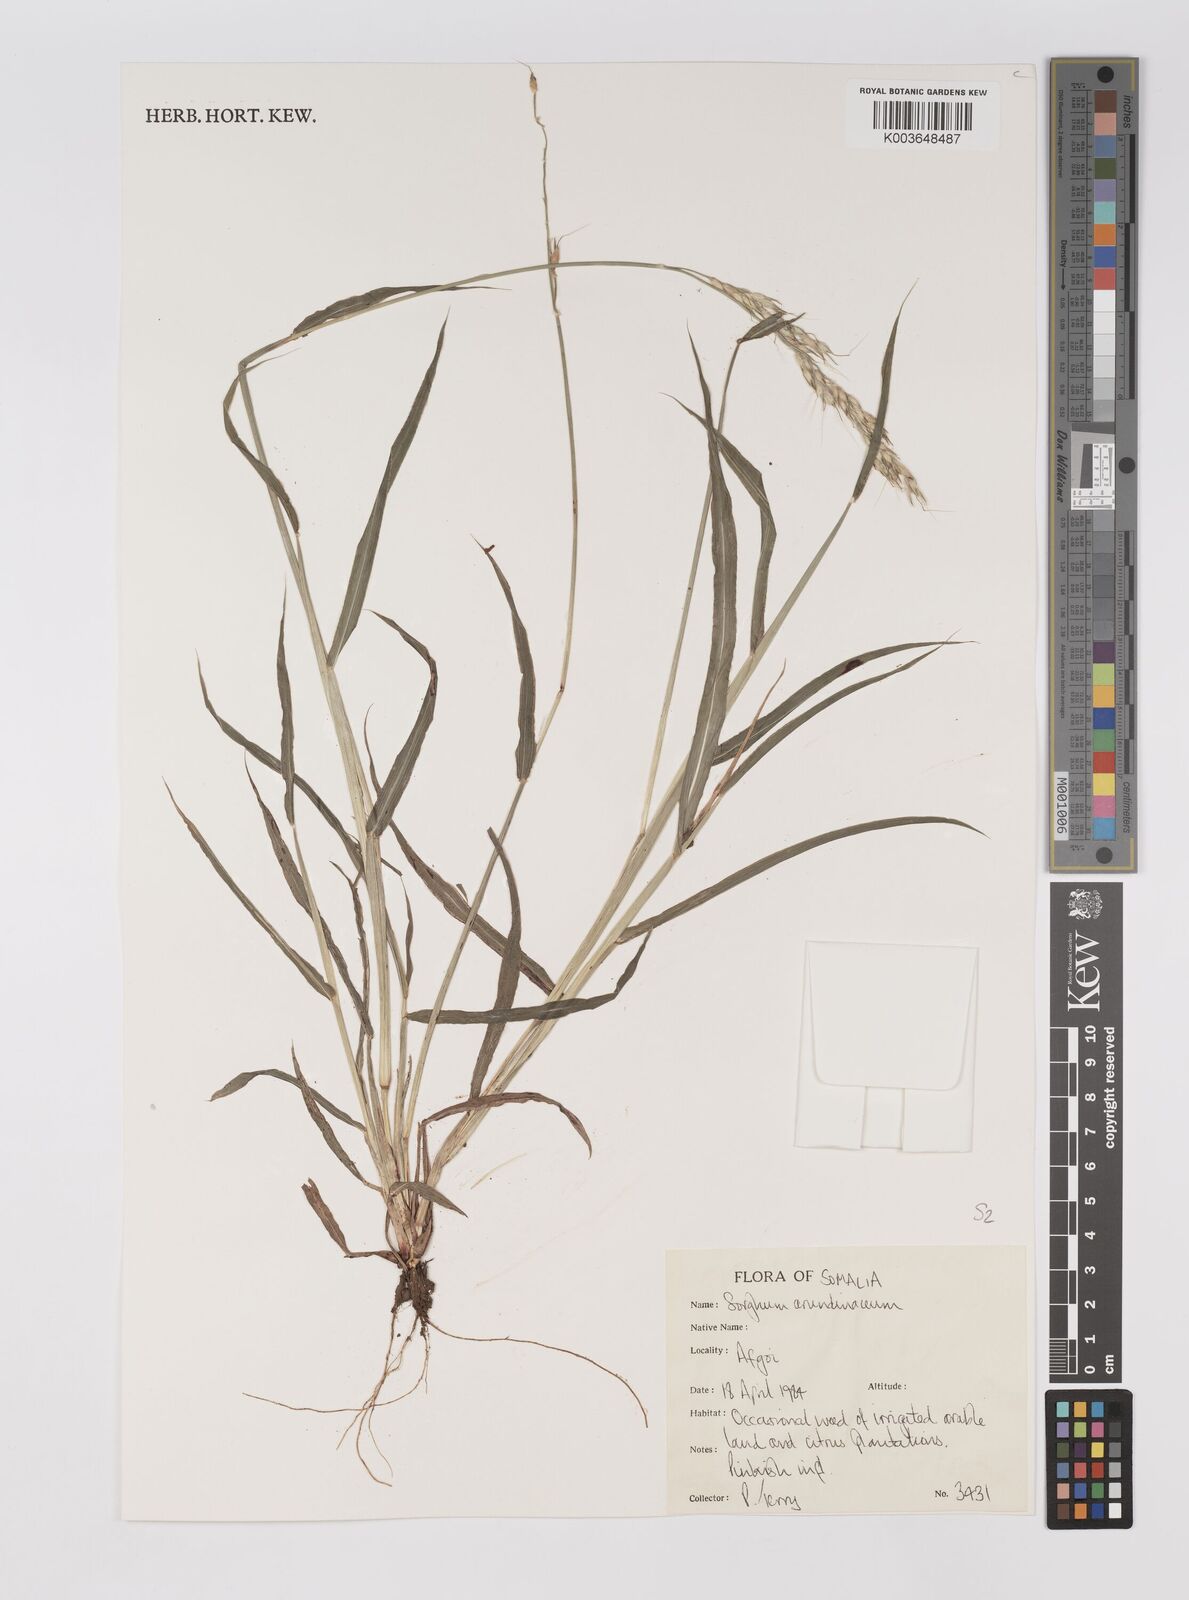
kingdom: Plantae
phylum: Tracheophyta
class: Liliopsida
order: Poales
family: Poaceae
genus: Sorghum
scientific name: Sorghum arundinaceum
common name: Sorghum
